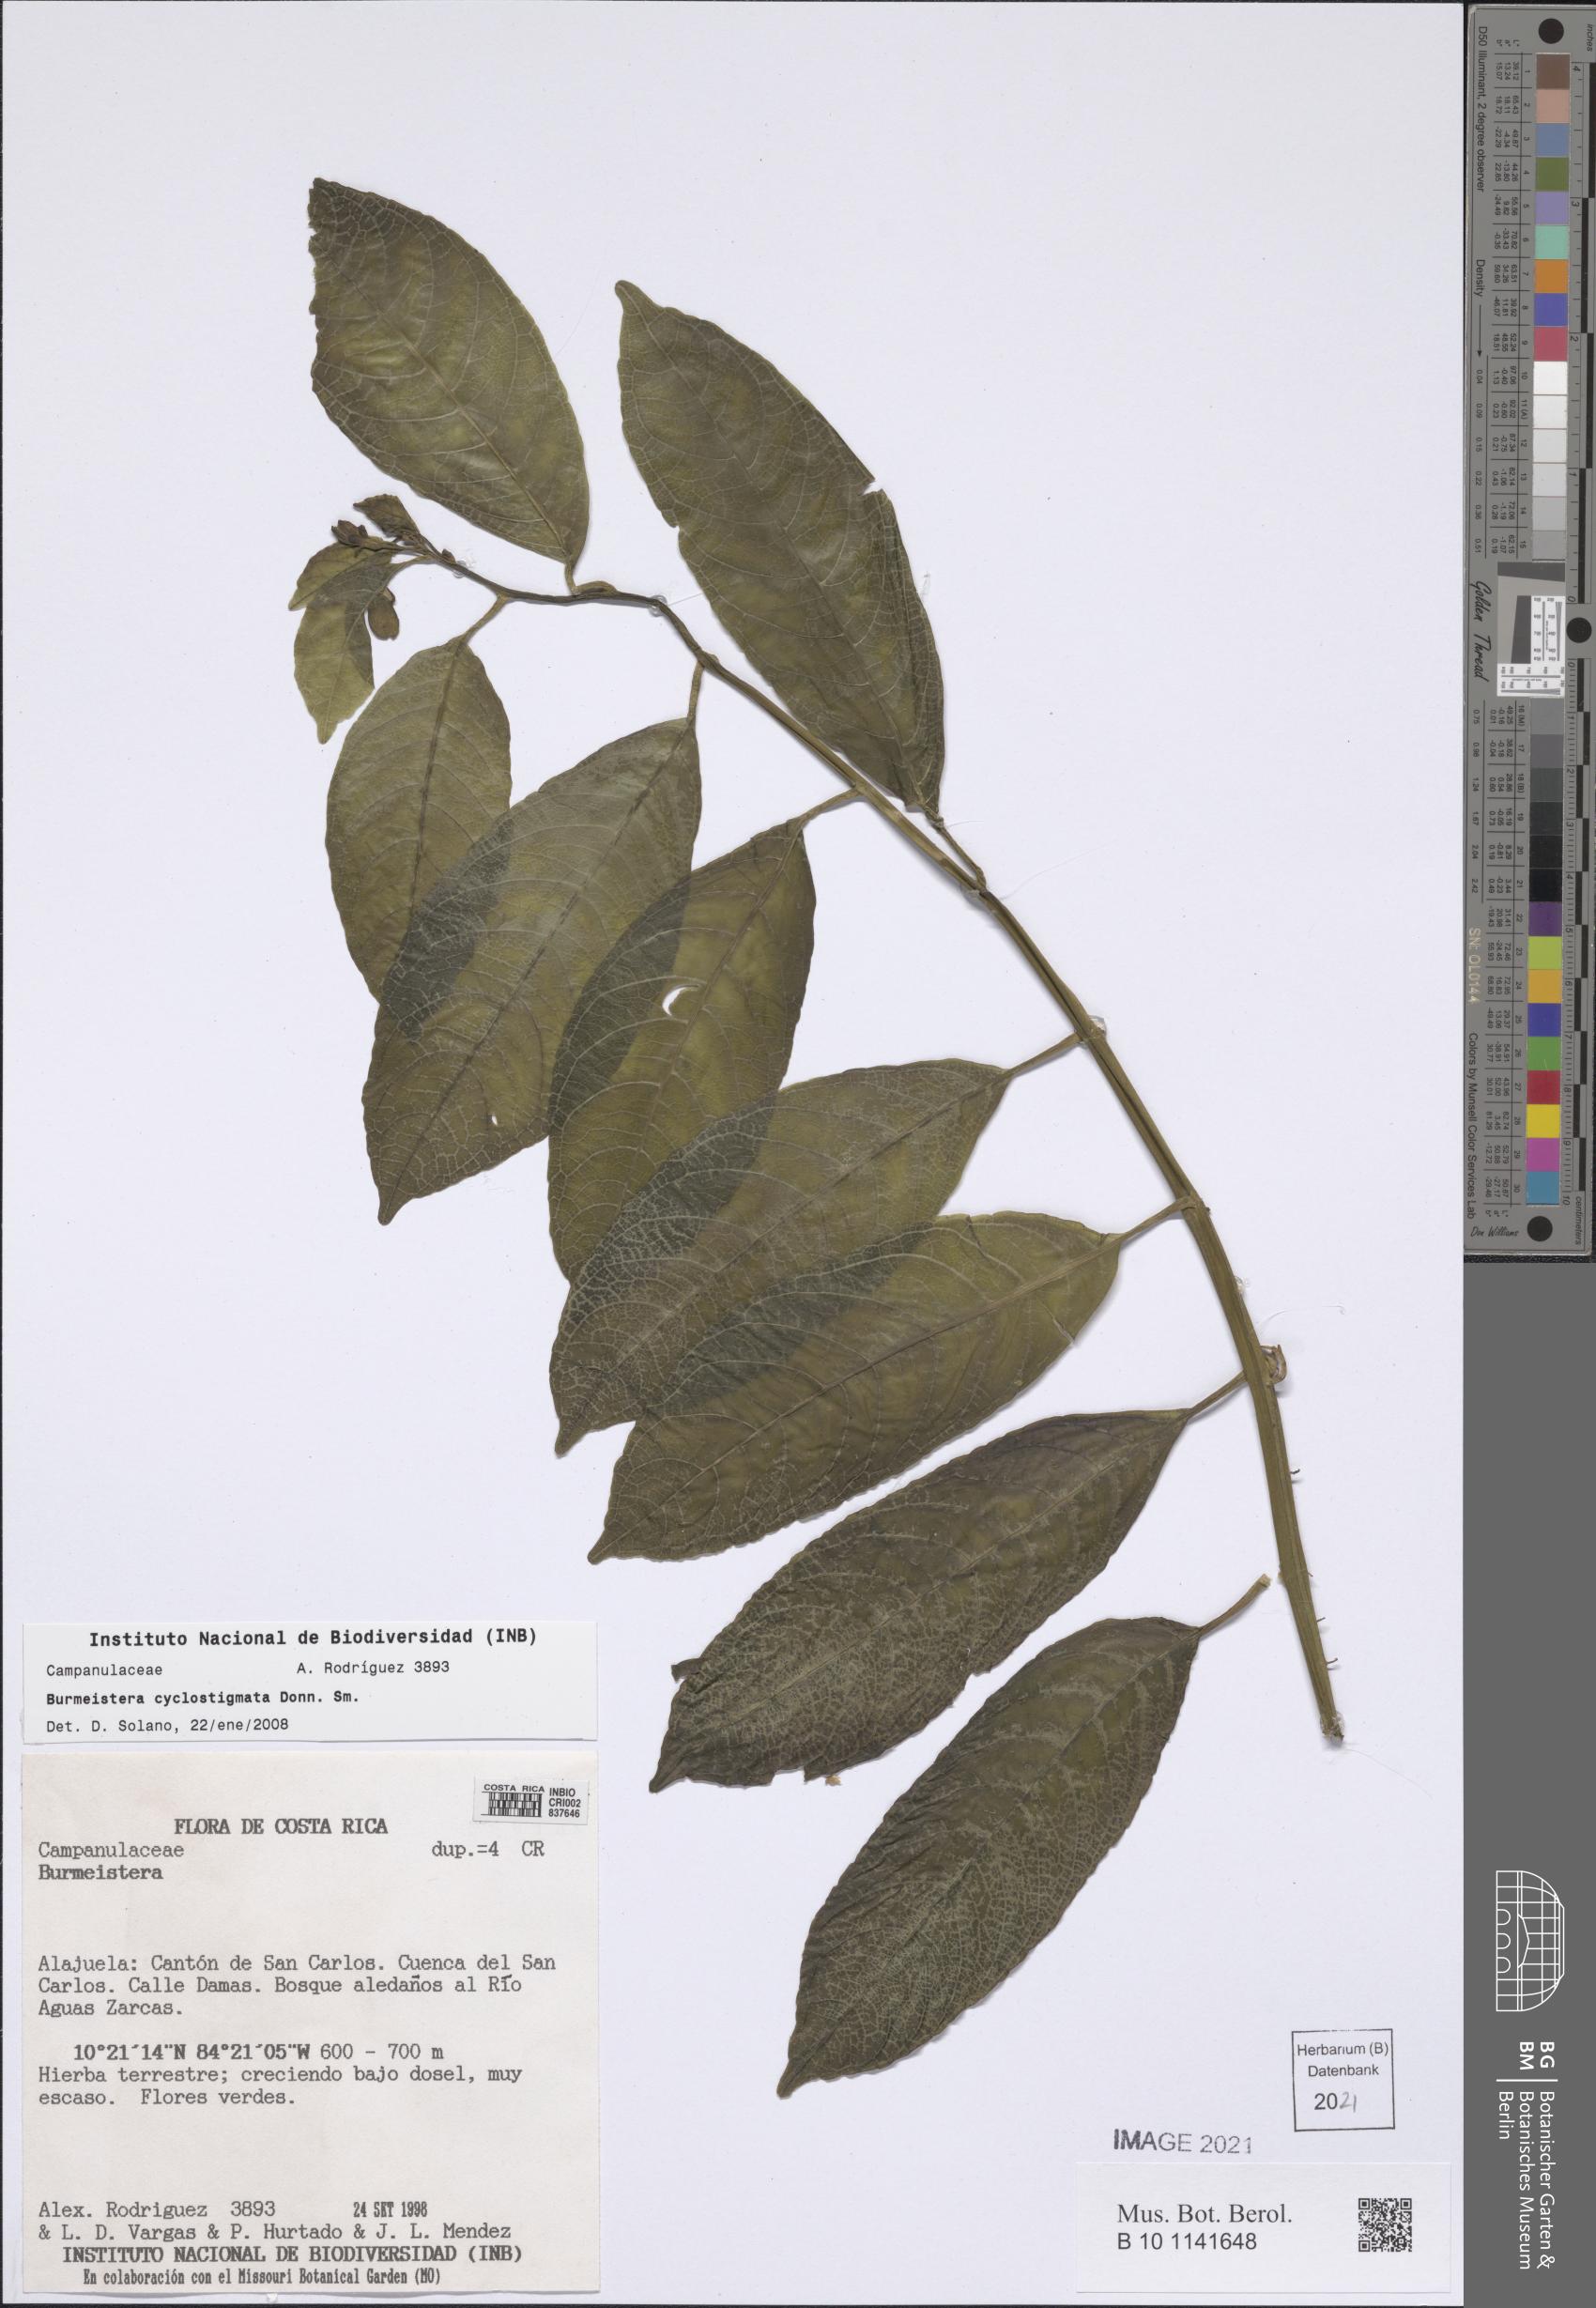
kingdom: Plantae
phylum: Tracheophyta
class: Magnoliopsida
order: Asterales
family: Campanulaceae
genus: Burmeistera
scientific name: Burmeistera cyclostigmata
